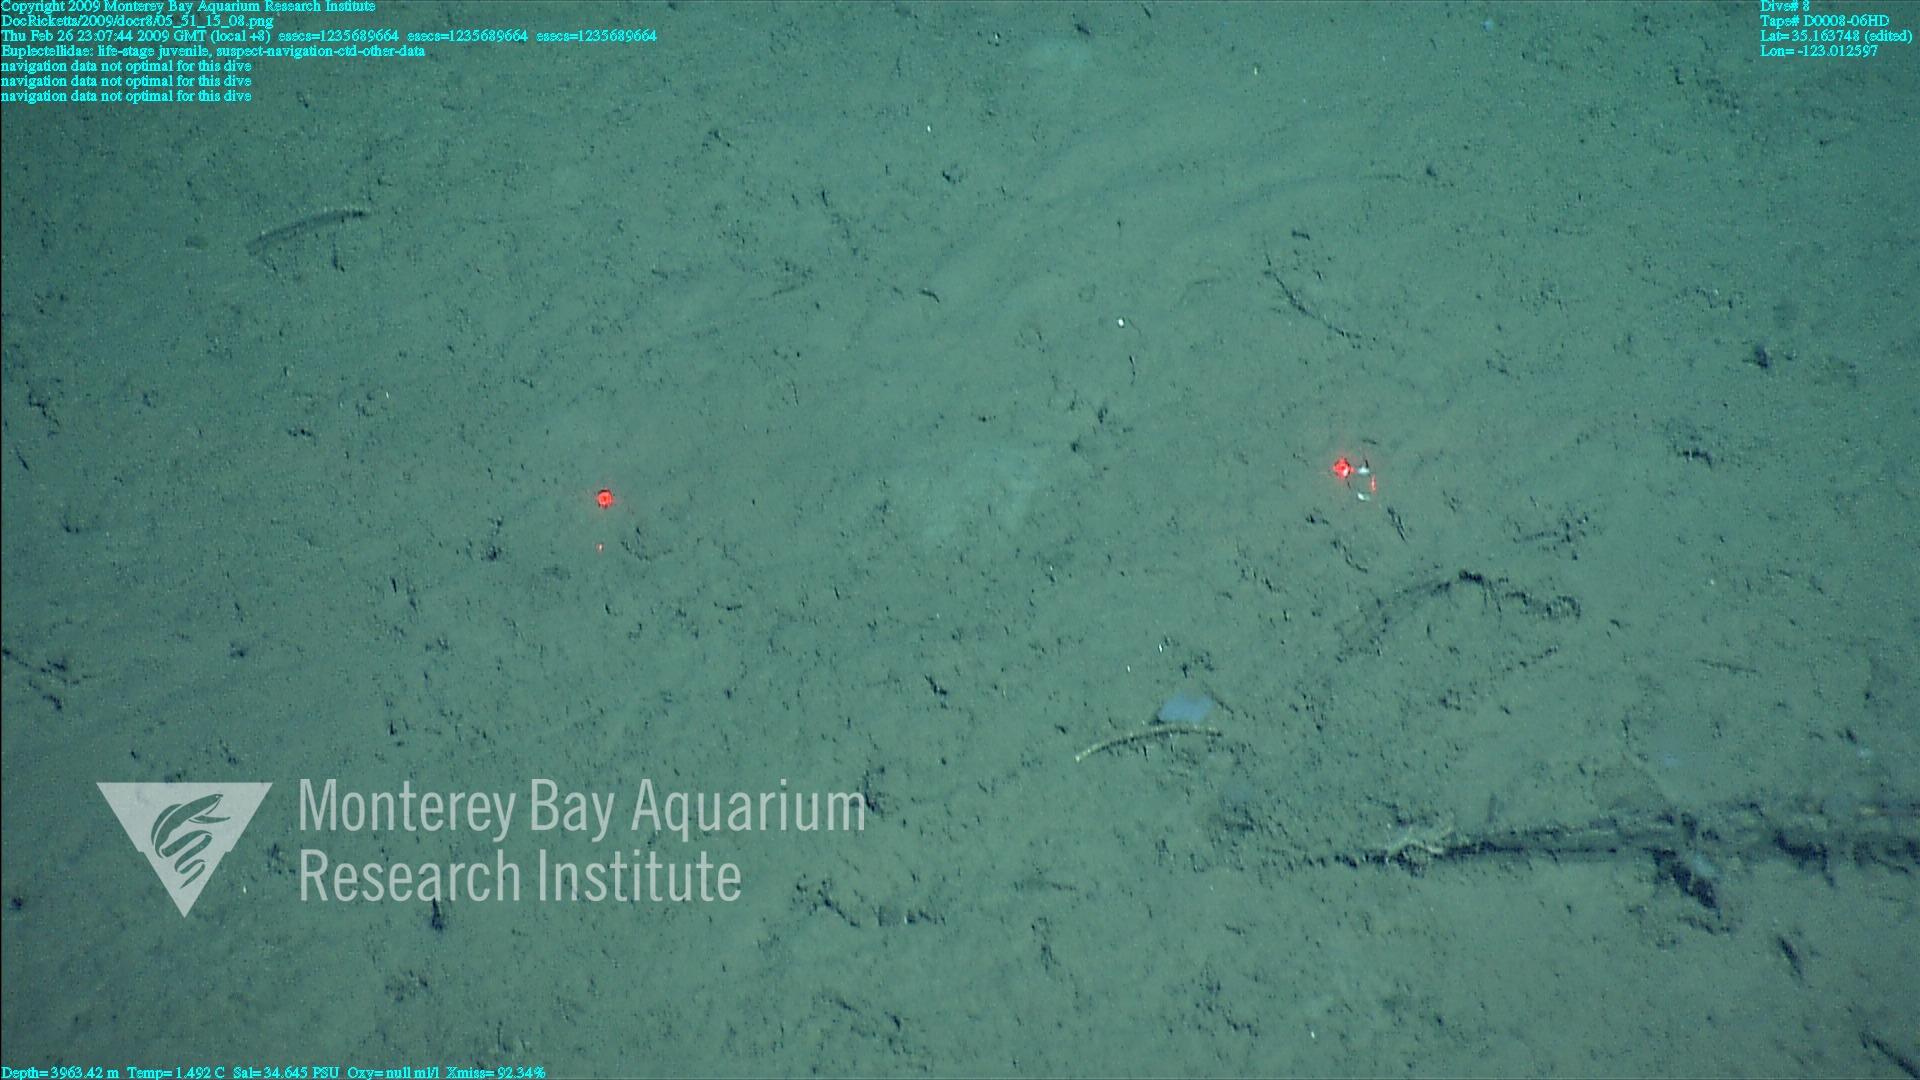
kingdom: Animalia
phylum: Porifera
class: Hexactinellida
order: Lyssacinosida
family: Euplectellidae
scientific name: Euplectellidae
